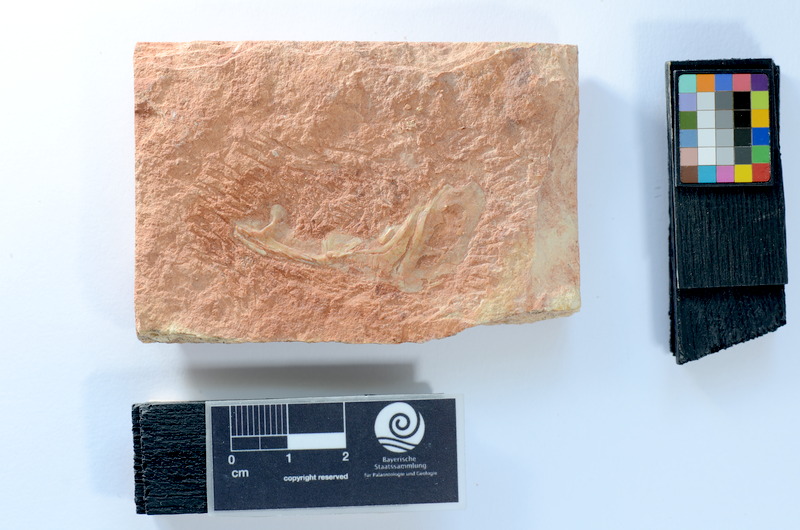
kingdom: Animalia
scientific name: Animalia
